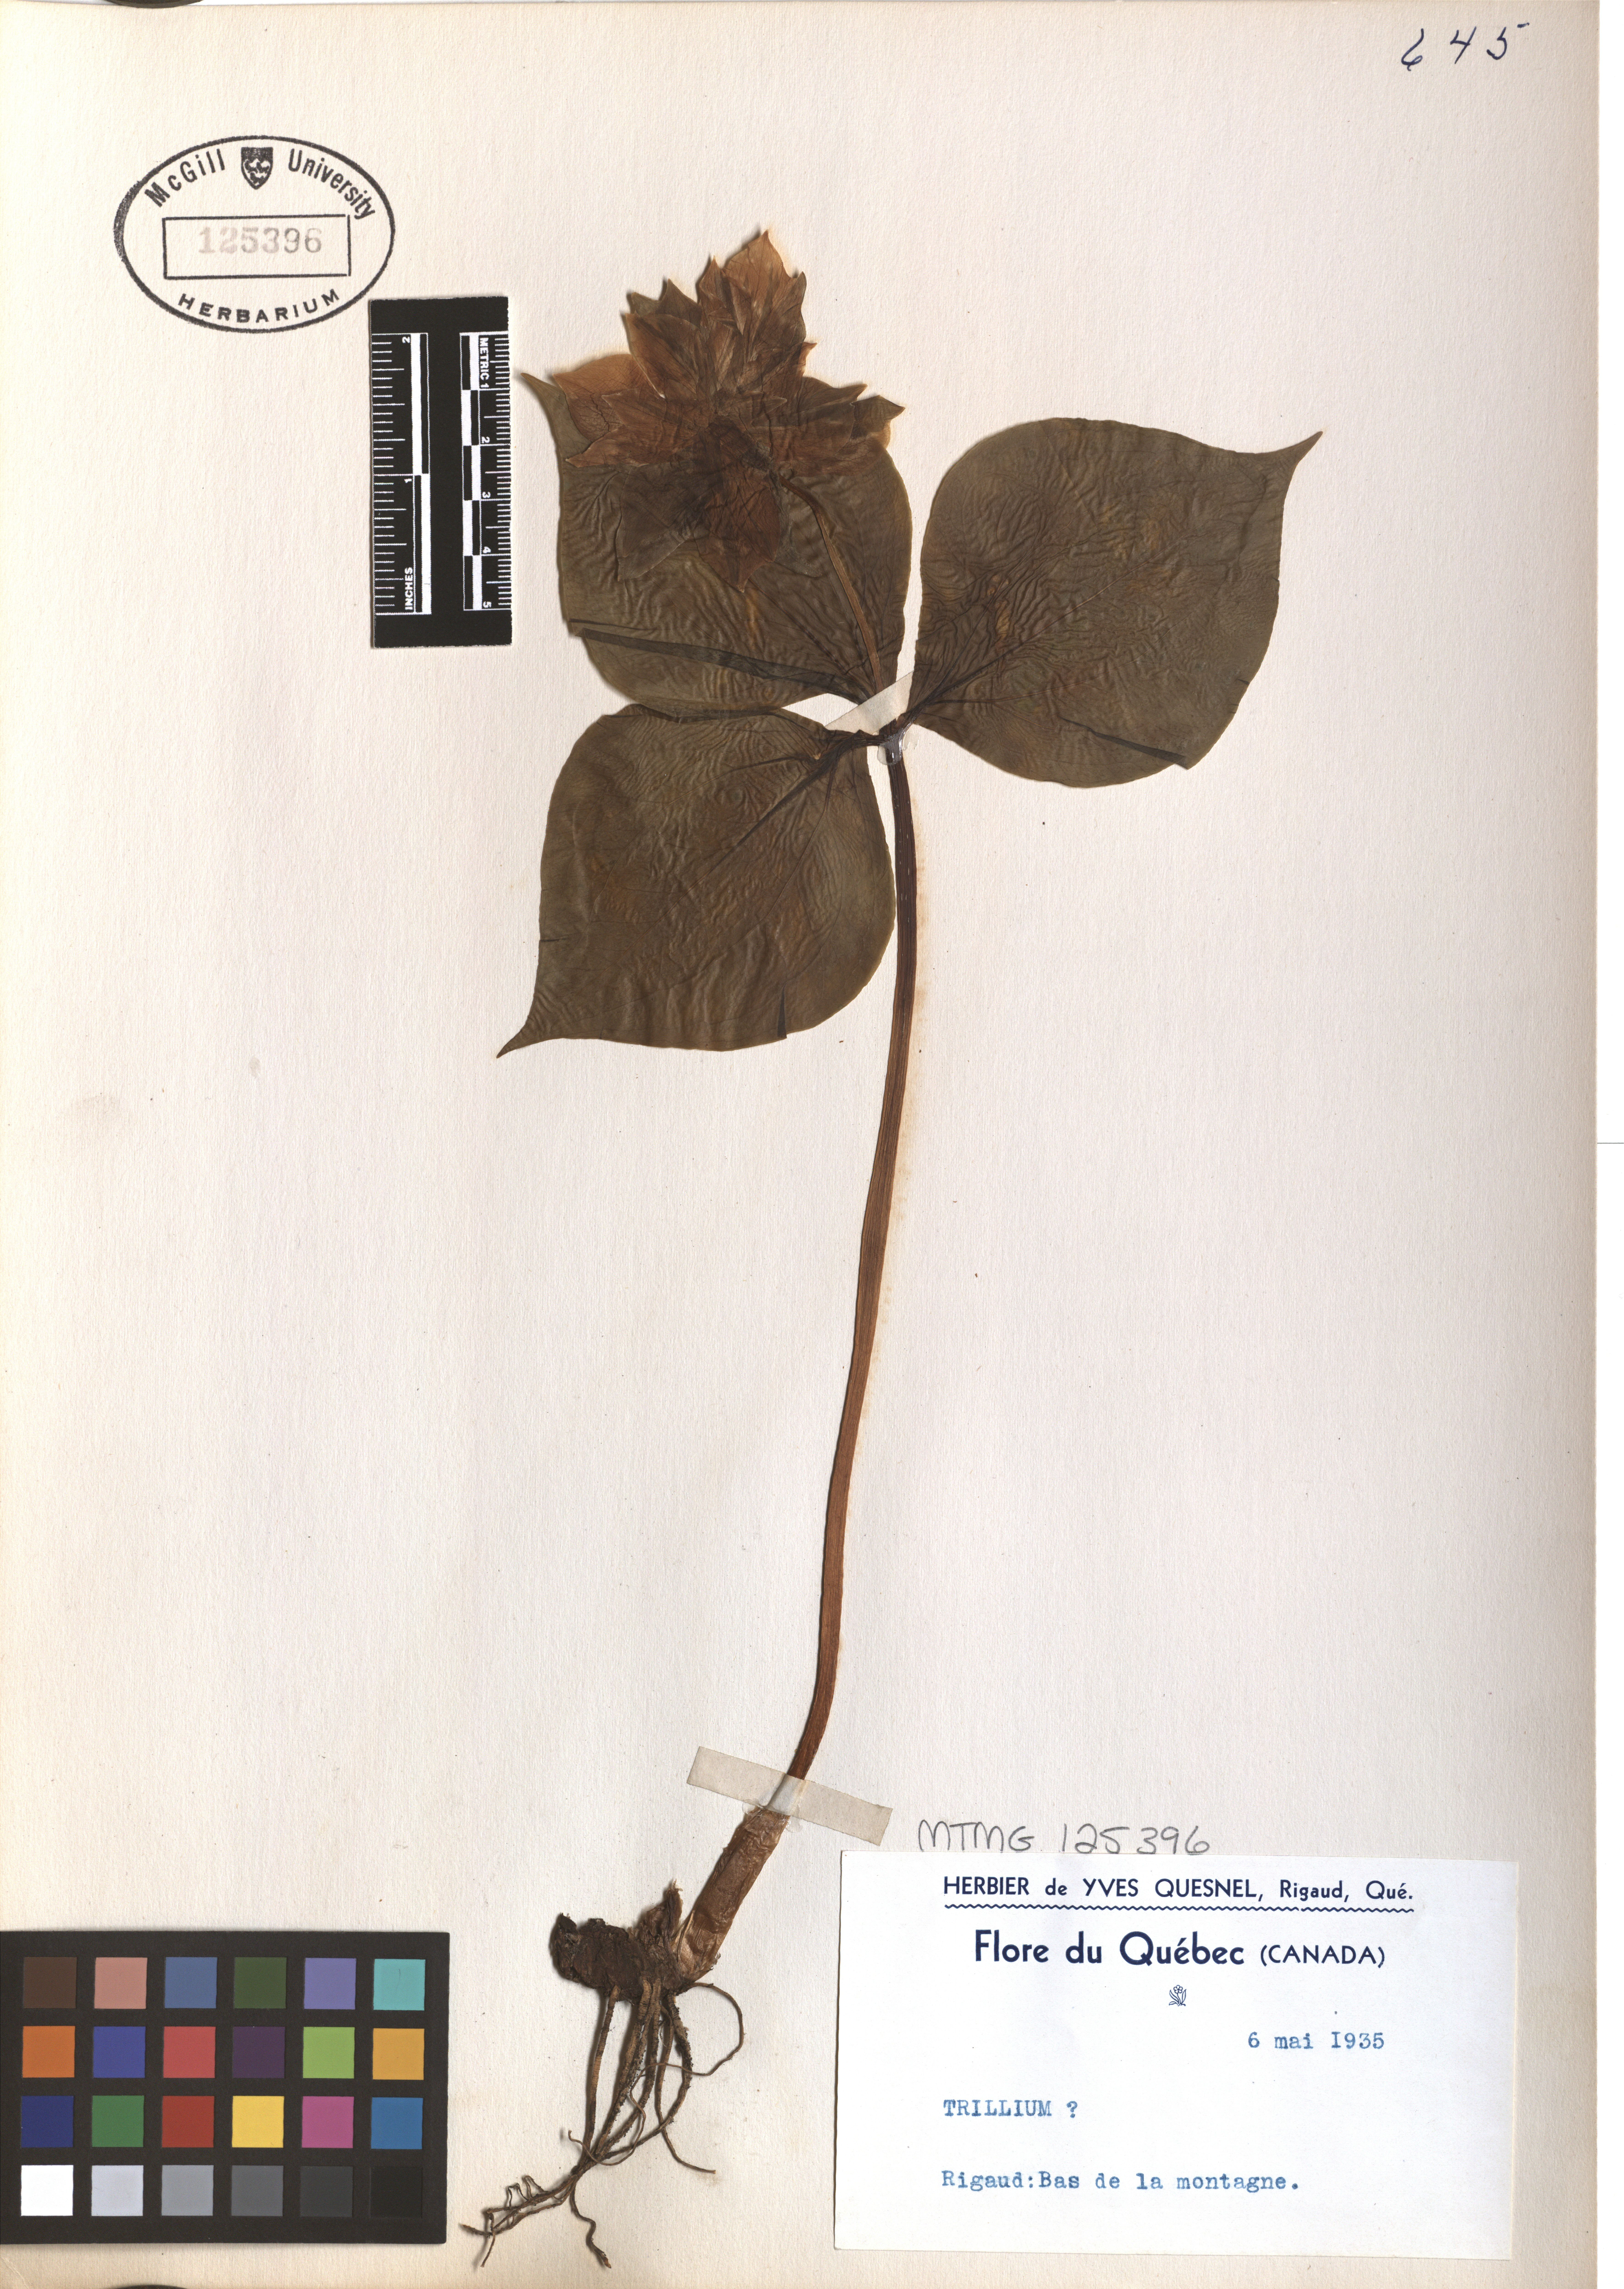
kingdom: Plantae
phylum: Tracheophyta
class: Liliopsida
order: Liliales
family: Melanthiaceae
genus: Trillium
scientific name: Trillium
